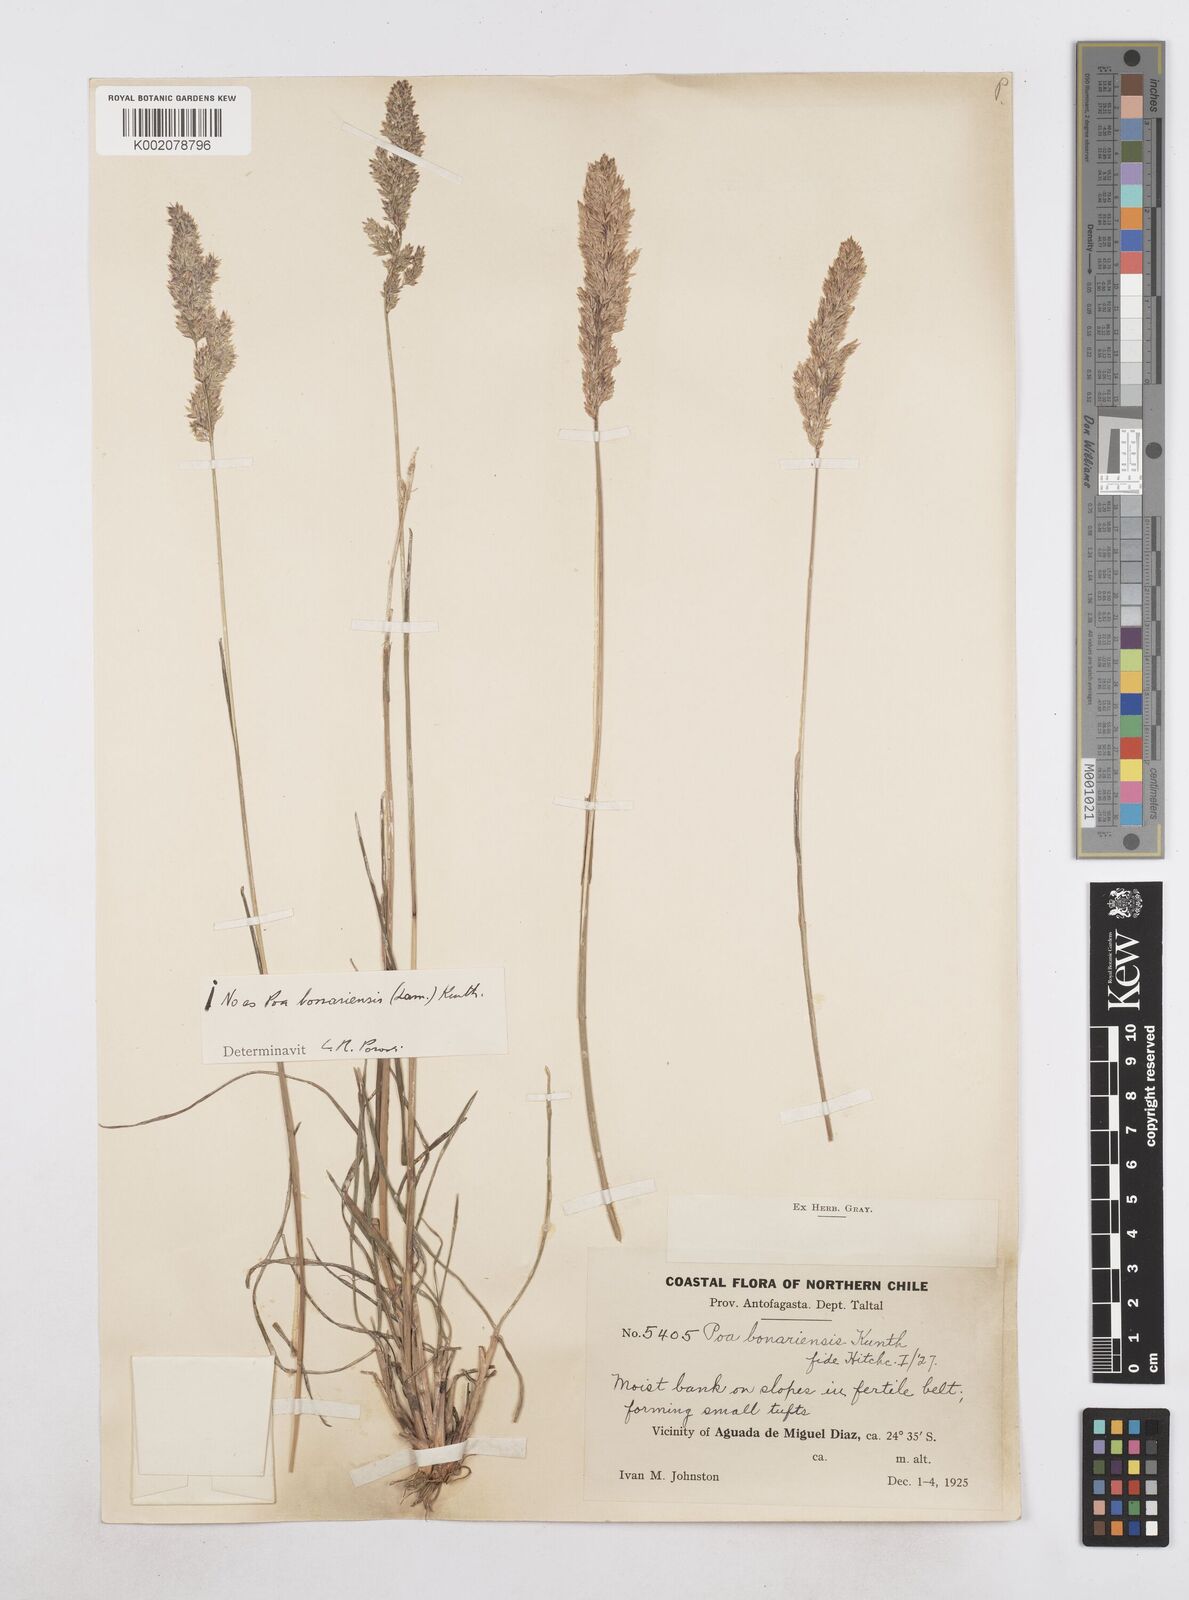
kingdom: Plantae
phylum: Tracheophyta
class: Liliopsida
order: Poales
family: Poaceae
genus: Poa
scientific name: Poa
